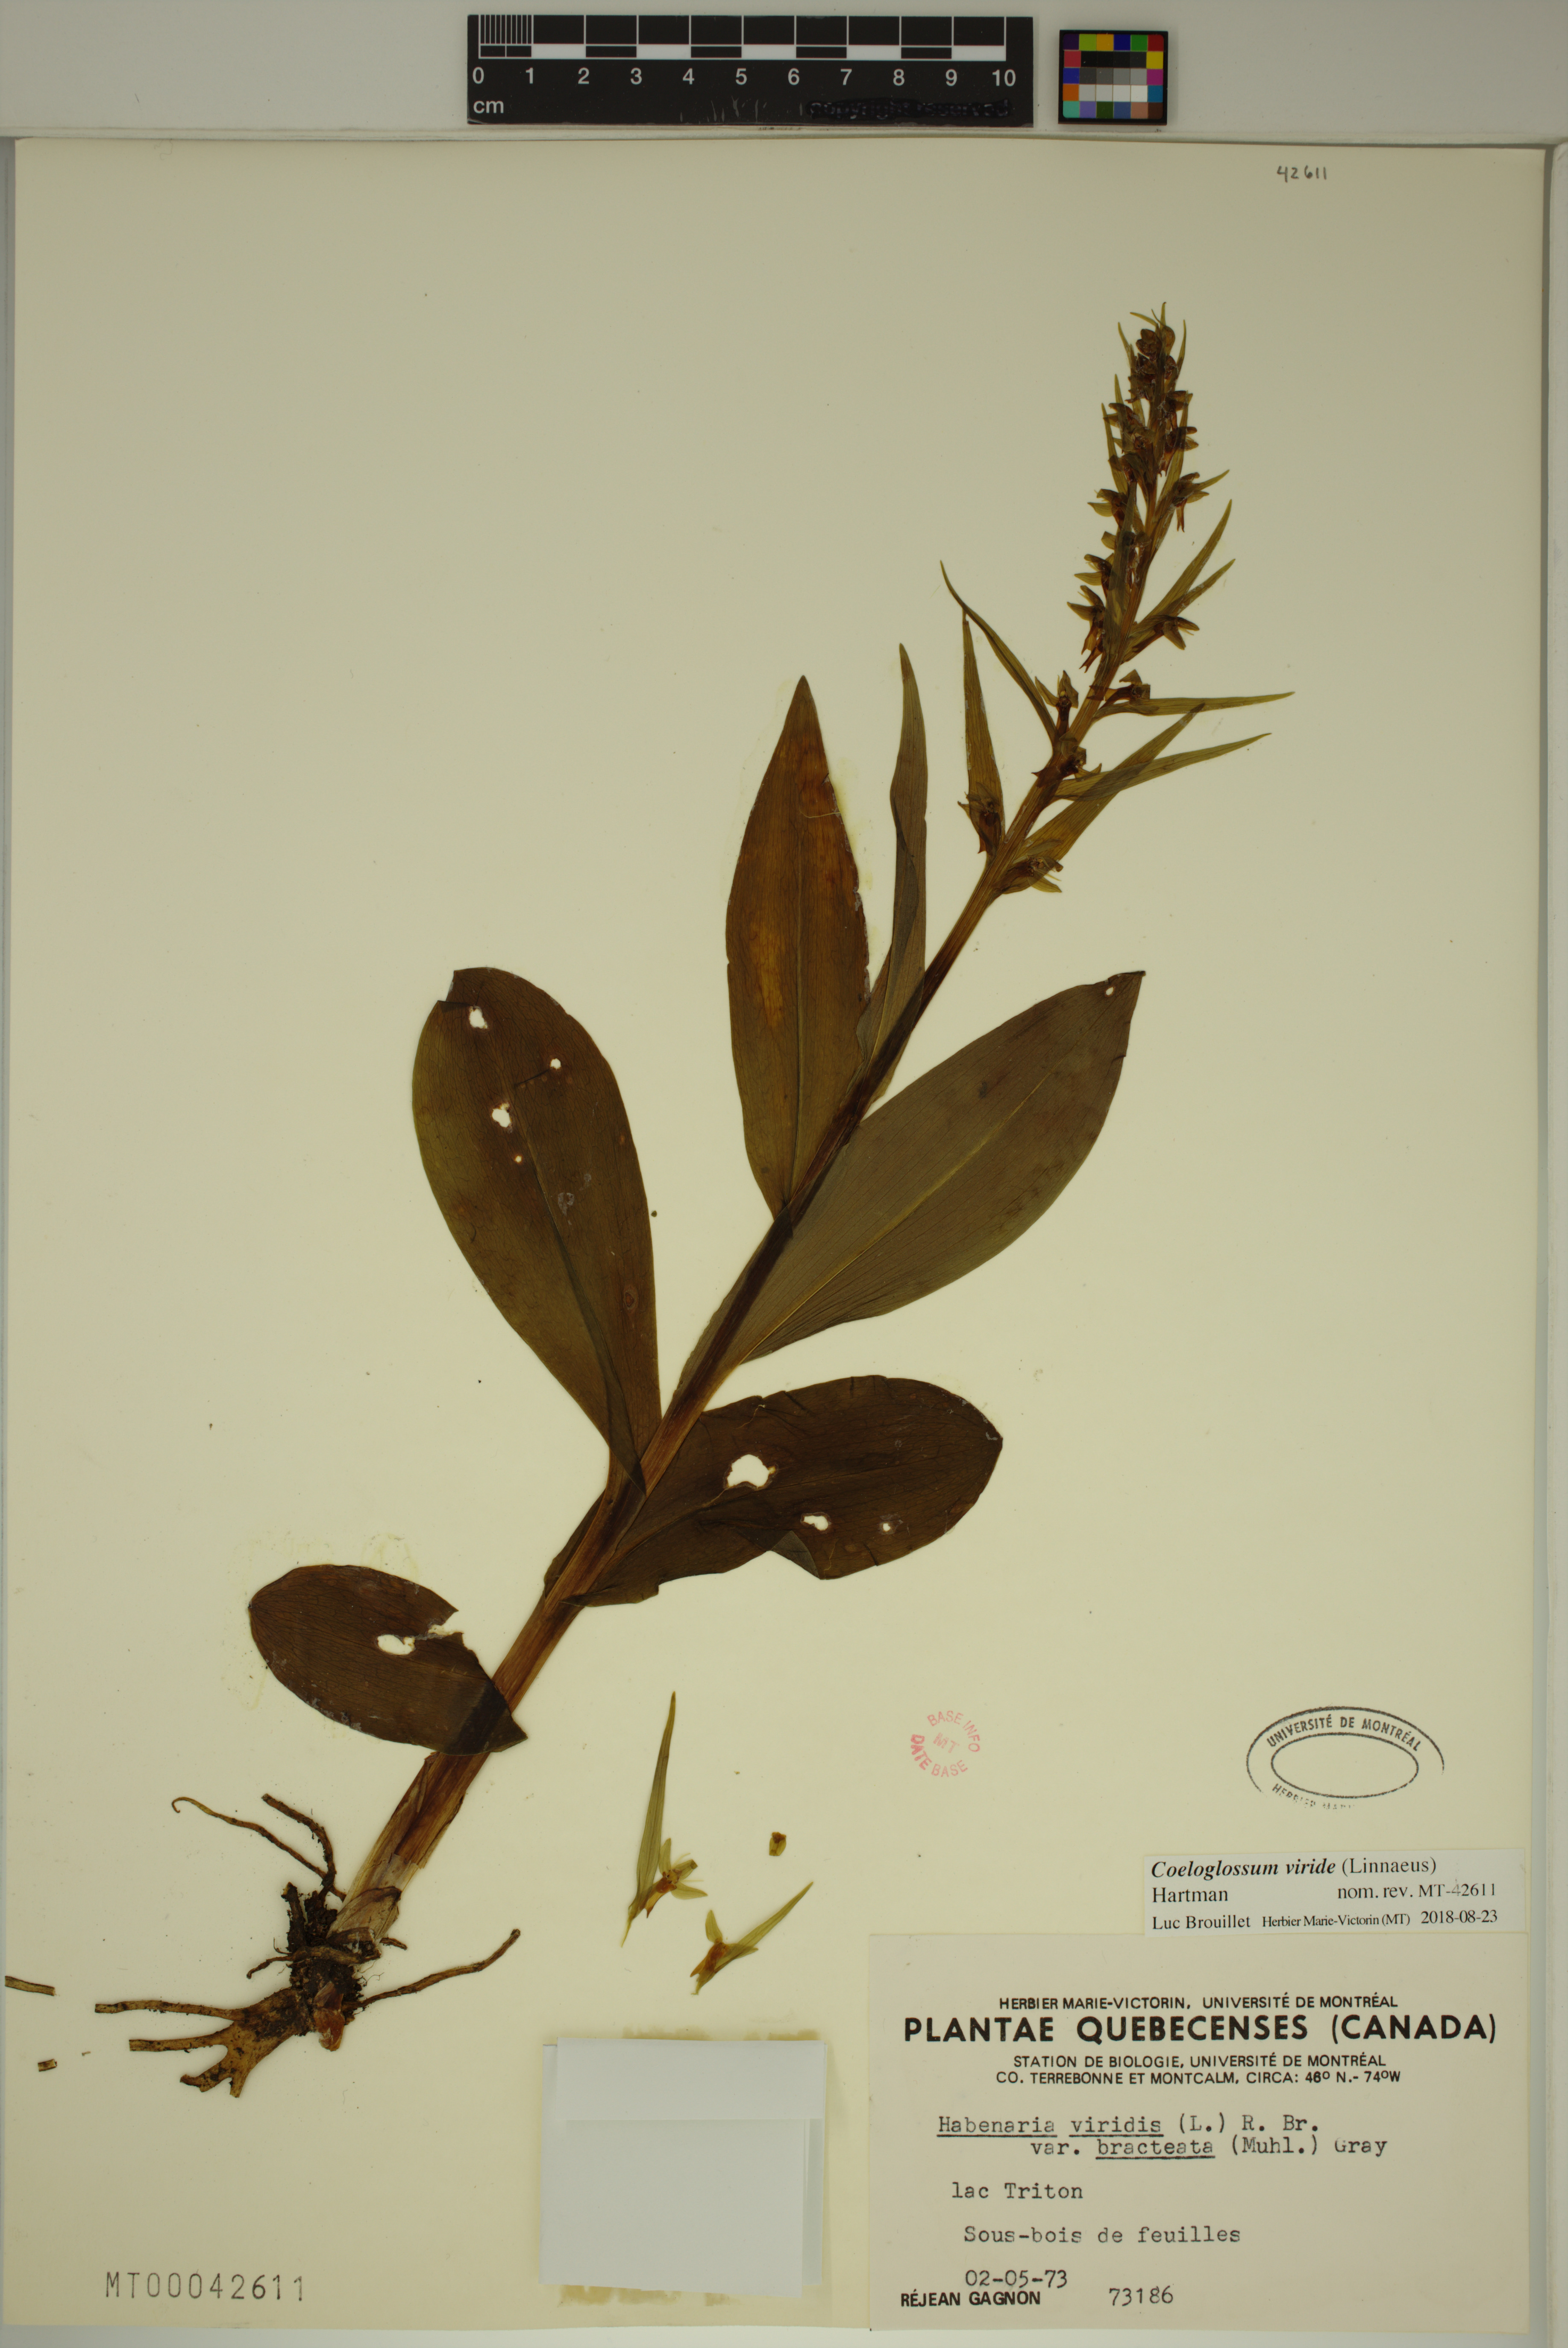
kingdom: Plantae
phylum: Tracheophyta
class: Liliopsida
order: Asparagales
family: Orchidaceae
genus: Dactylorhiza
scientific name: Dactylorhiza viridis
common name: Longbract frog orchid
